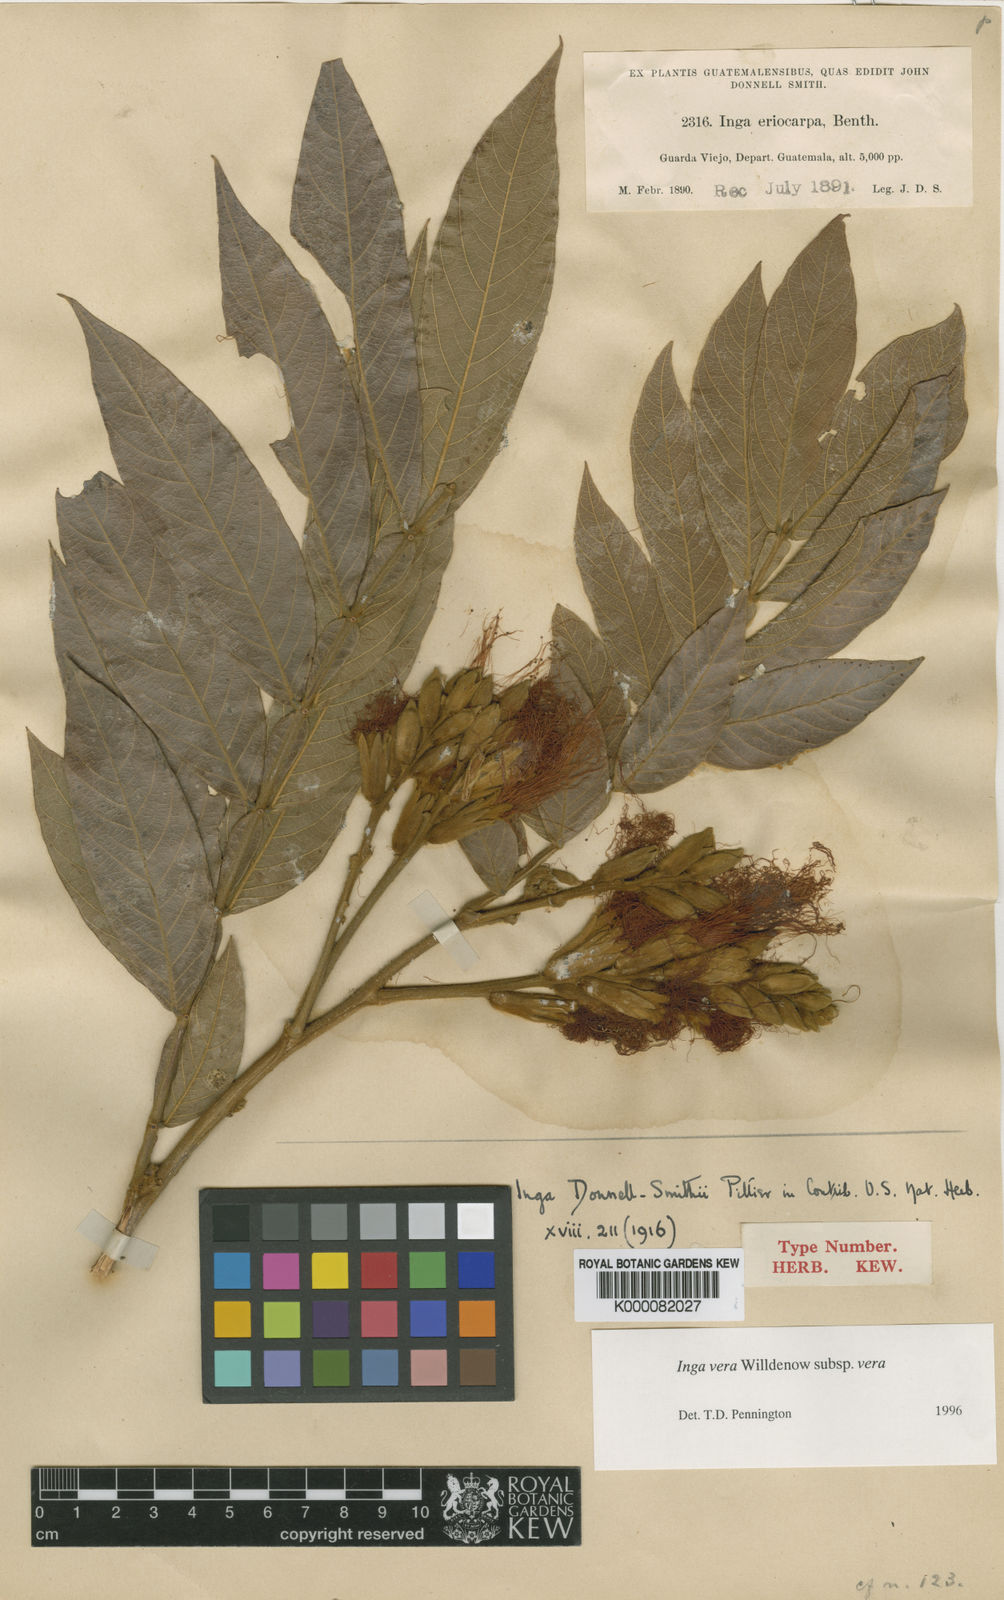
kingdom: Plantae
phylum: Tracheophyta
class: Magnoliopsida
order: Fabales
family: Fabaceae
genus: Inga
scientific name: Inga vera
